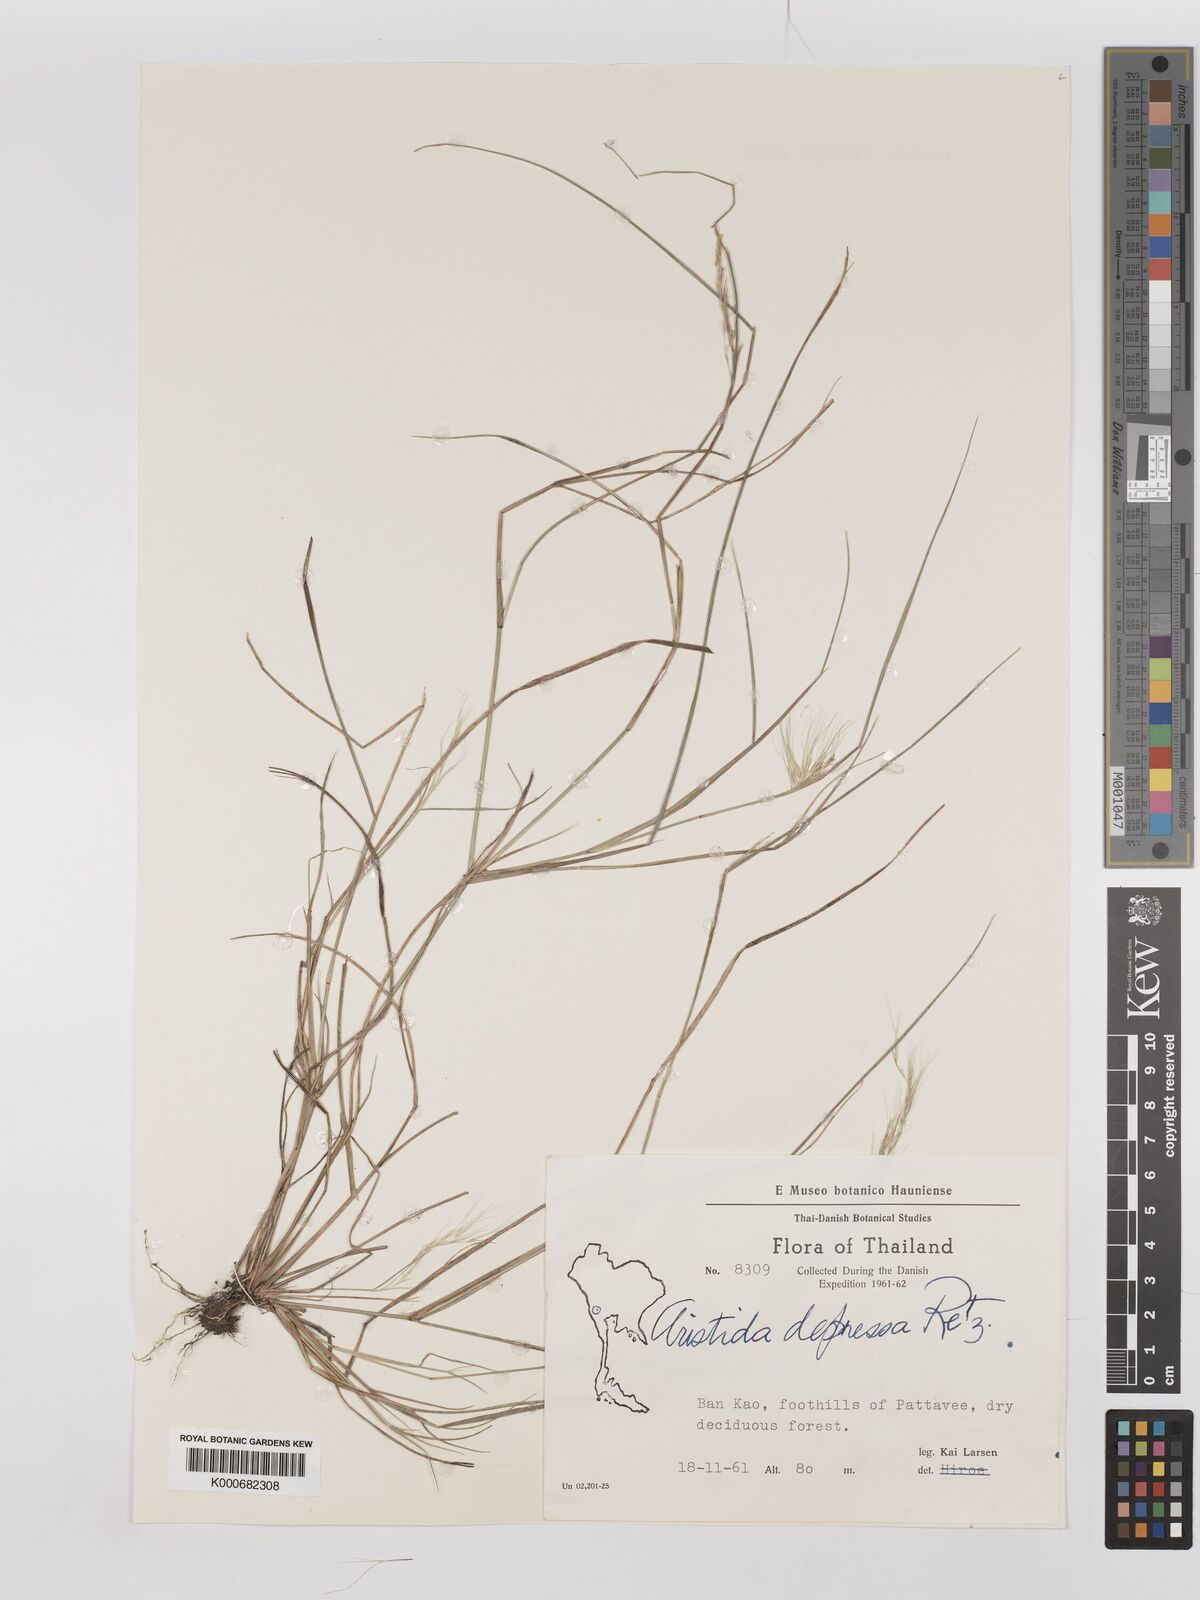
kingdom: Plantae
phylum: Tracheophyta
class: Liliopsida
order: Poales
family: Poaceae
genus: Aristida
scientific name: Aristida adscensionis
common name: Sixweeks threeawn
